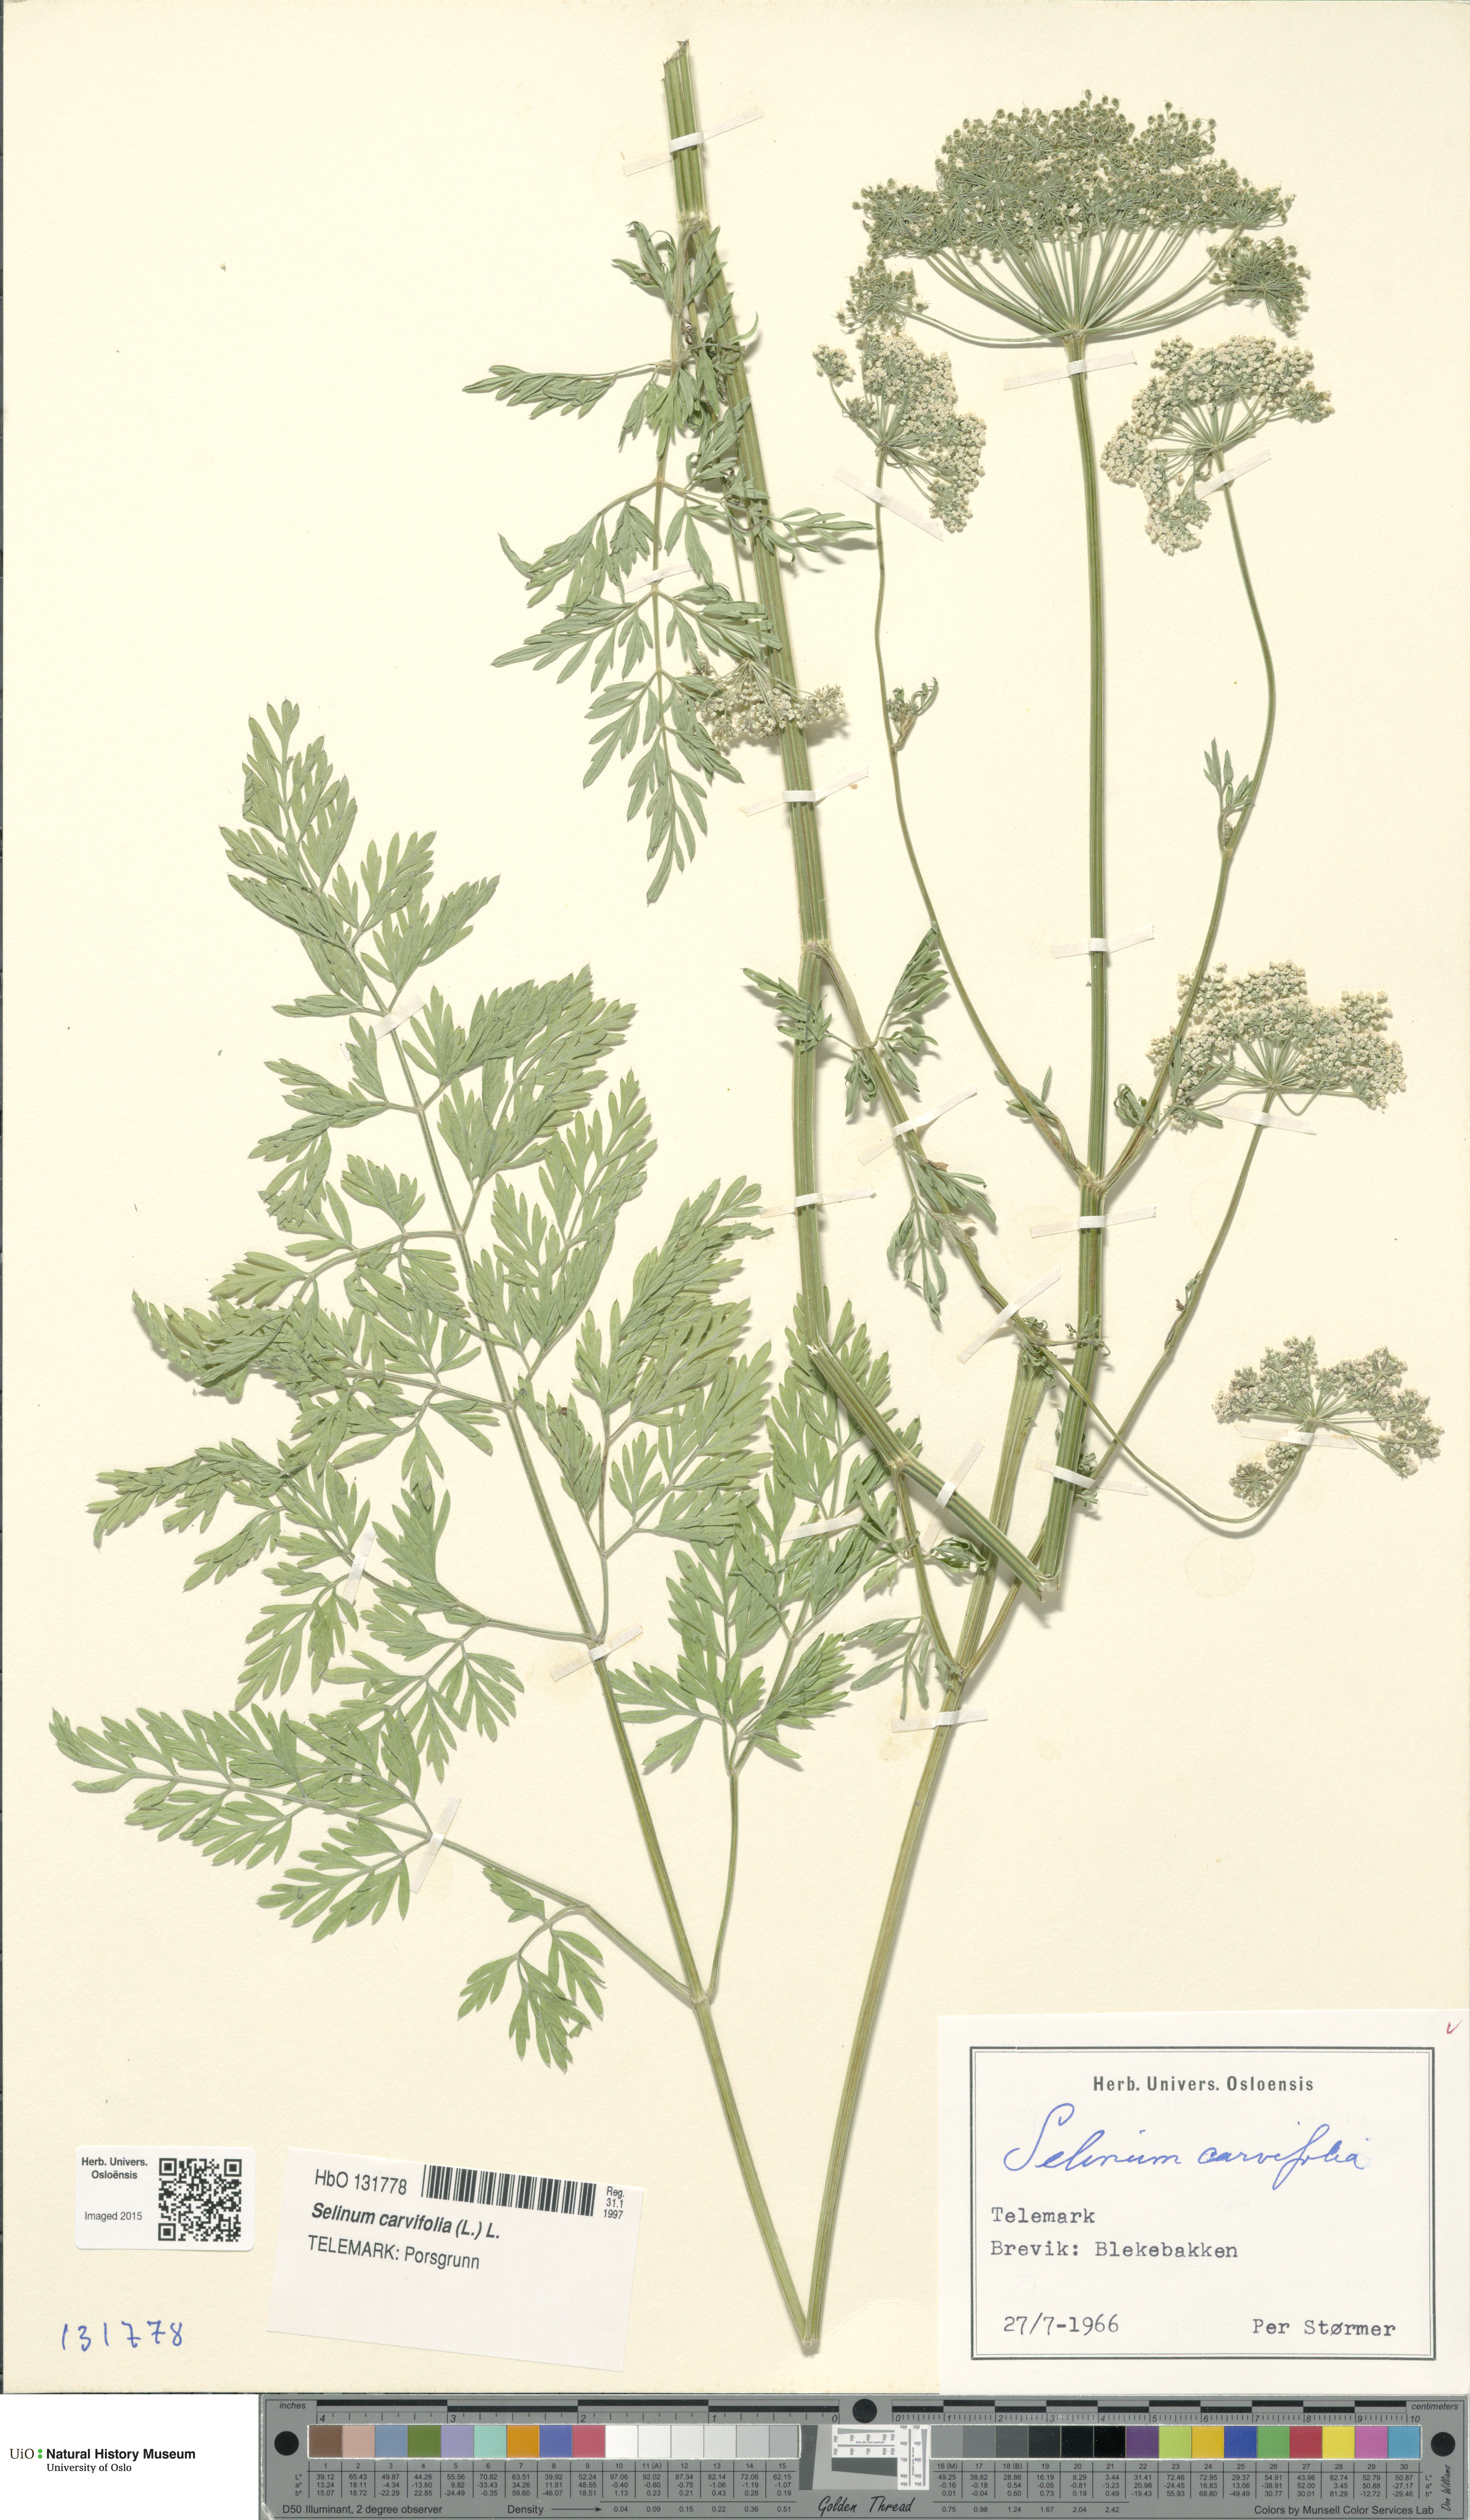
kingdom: Plantae
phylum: Tracheophyta
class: Magnoliopsida
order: Apiales
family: Apiaceae
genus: Selinum
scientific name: Selinum carvifolia
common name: Cambridge milk-parsley
